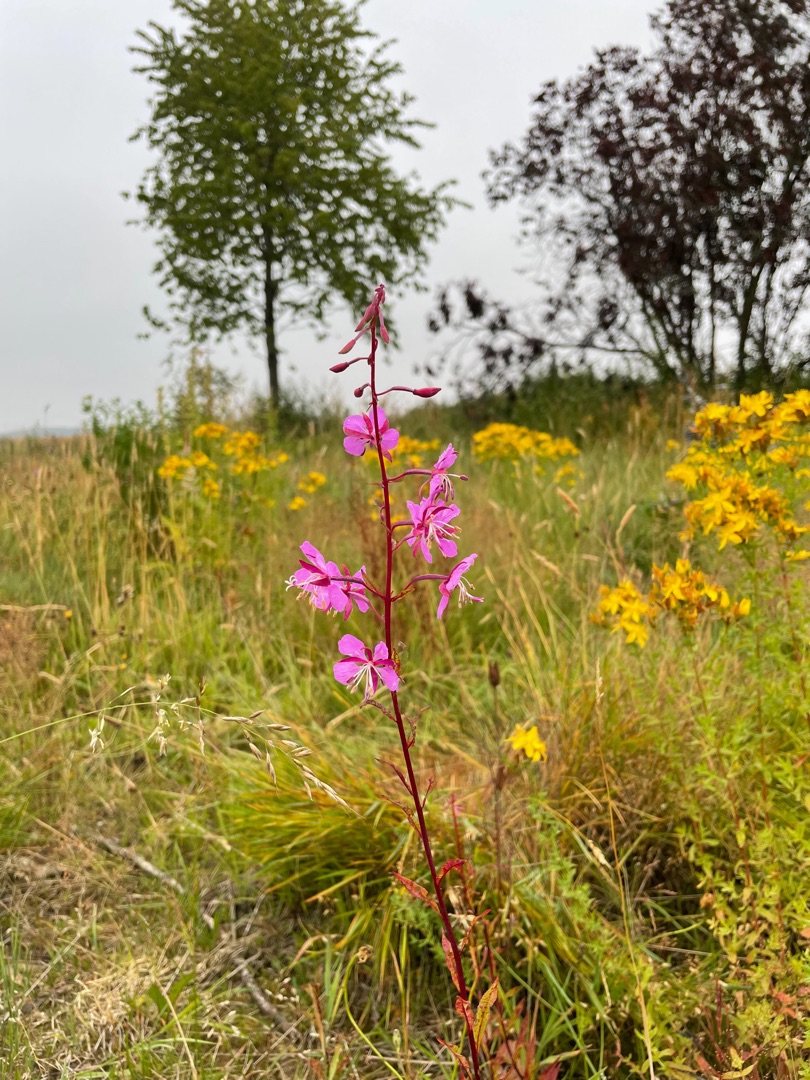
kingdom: Plantae
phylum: Tracheophyta
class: Magnoliopsida
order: Myrtales
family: Onagraceae
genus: Chamaenerion
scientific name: Chamaenerion angustifolium
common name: Gederams
